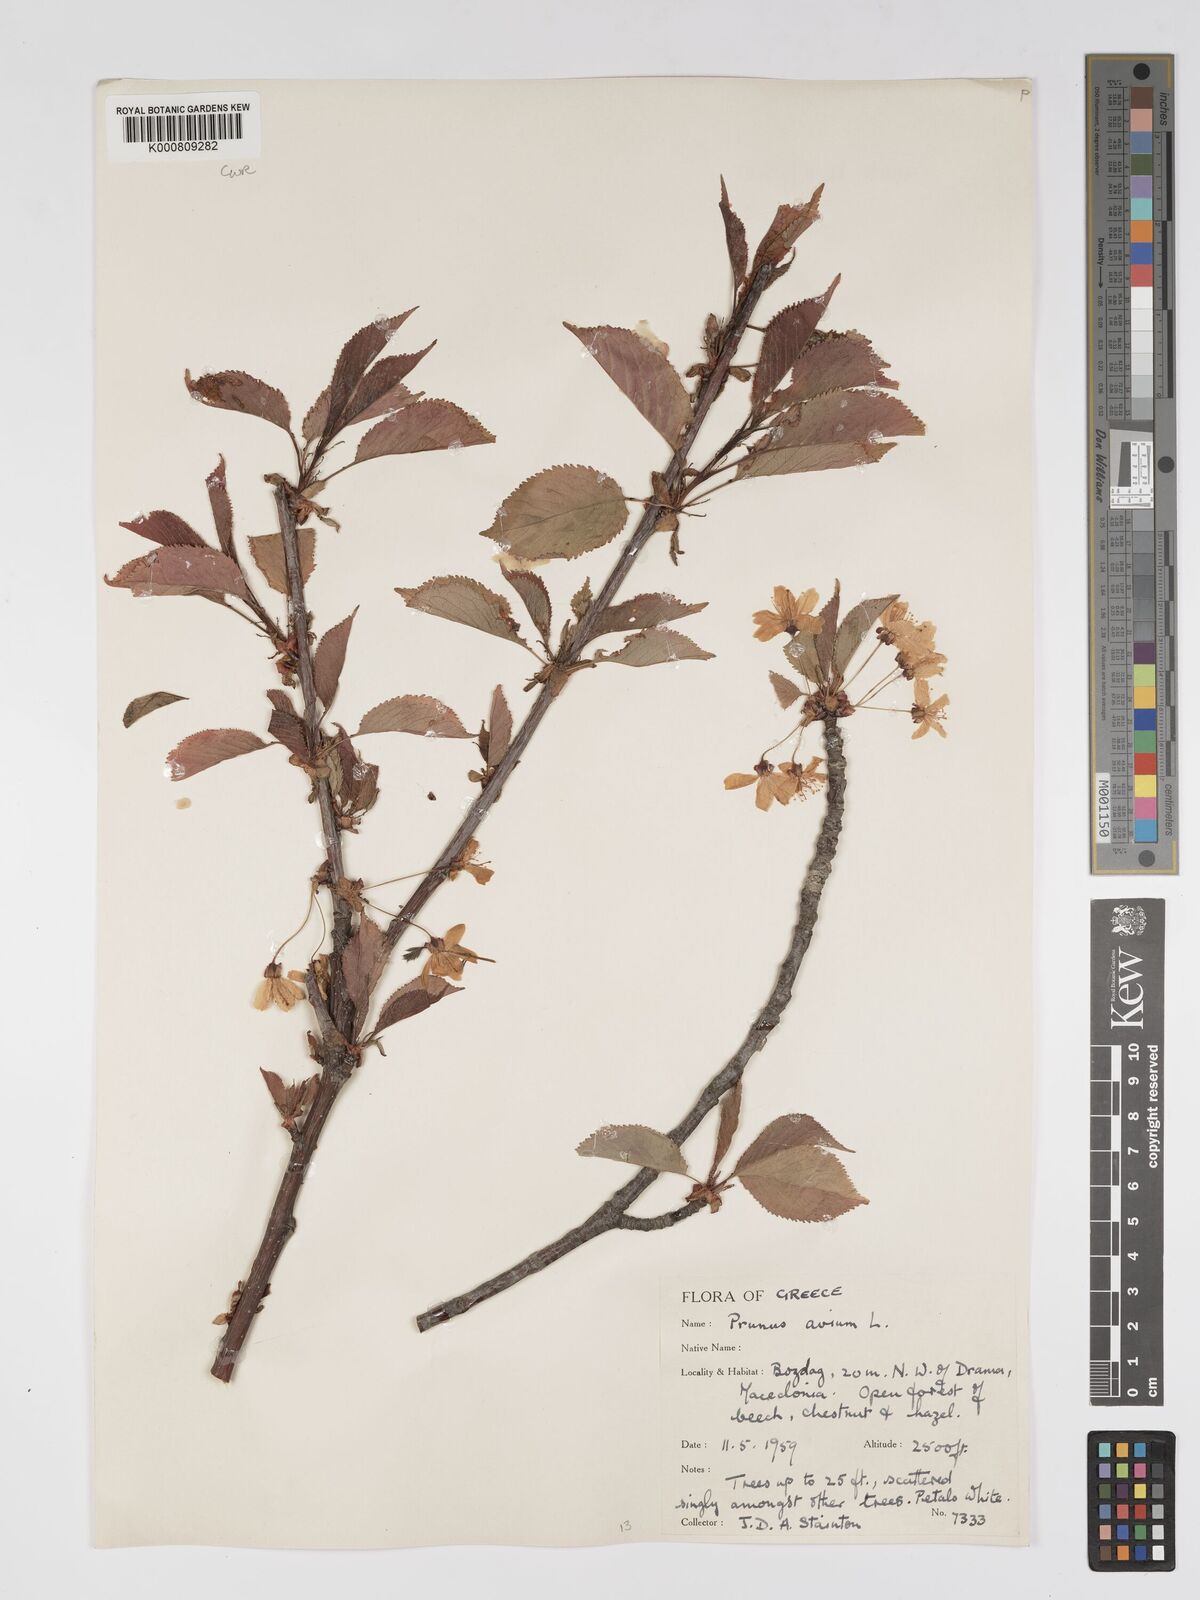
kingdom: Plantae
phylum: Tracheophyta
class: Magnoliopsida
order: Rosales
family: Rosaceae
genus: Prunus
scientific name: Prunus avium
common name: Sweet cherry
